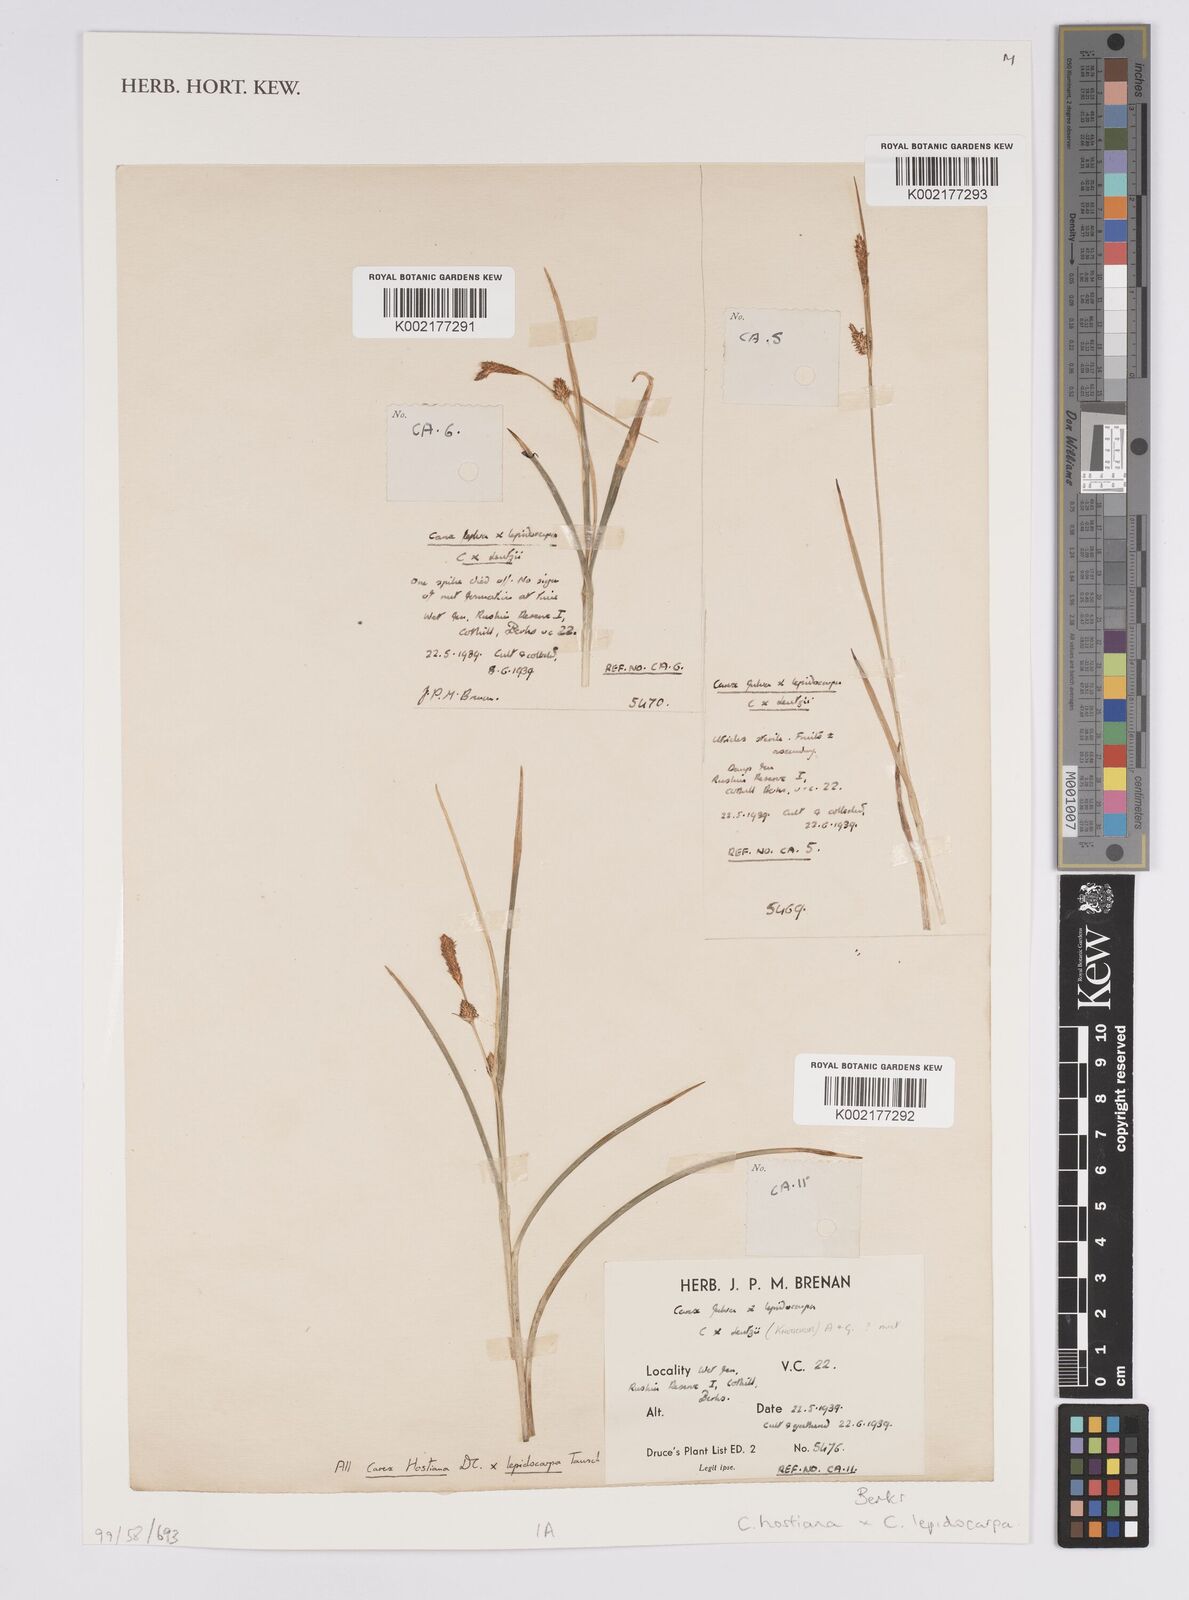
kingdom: Plantae
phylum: Tracheophyta
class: Liliopsida
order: Poales
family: Cyperaceae
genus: Carex
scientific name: Carex hostiana
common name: Tawny sedge
